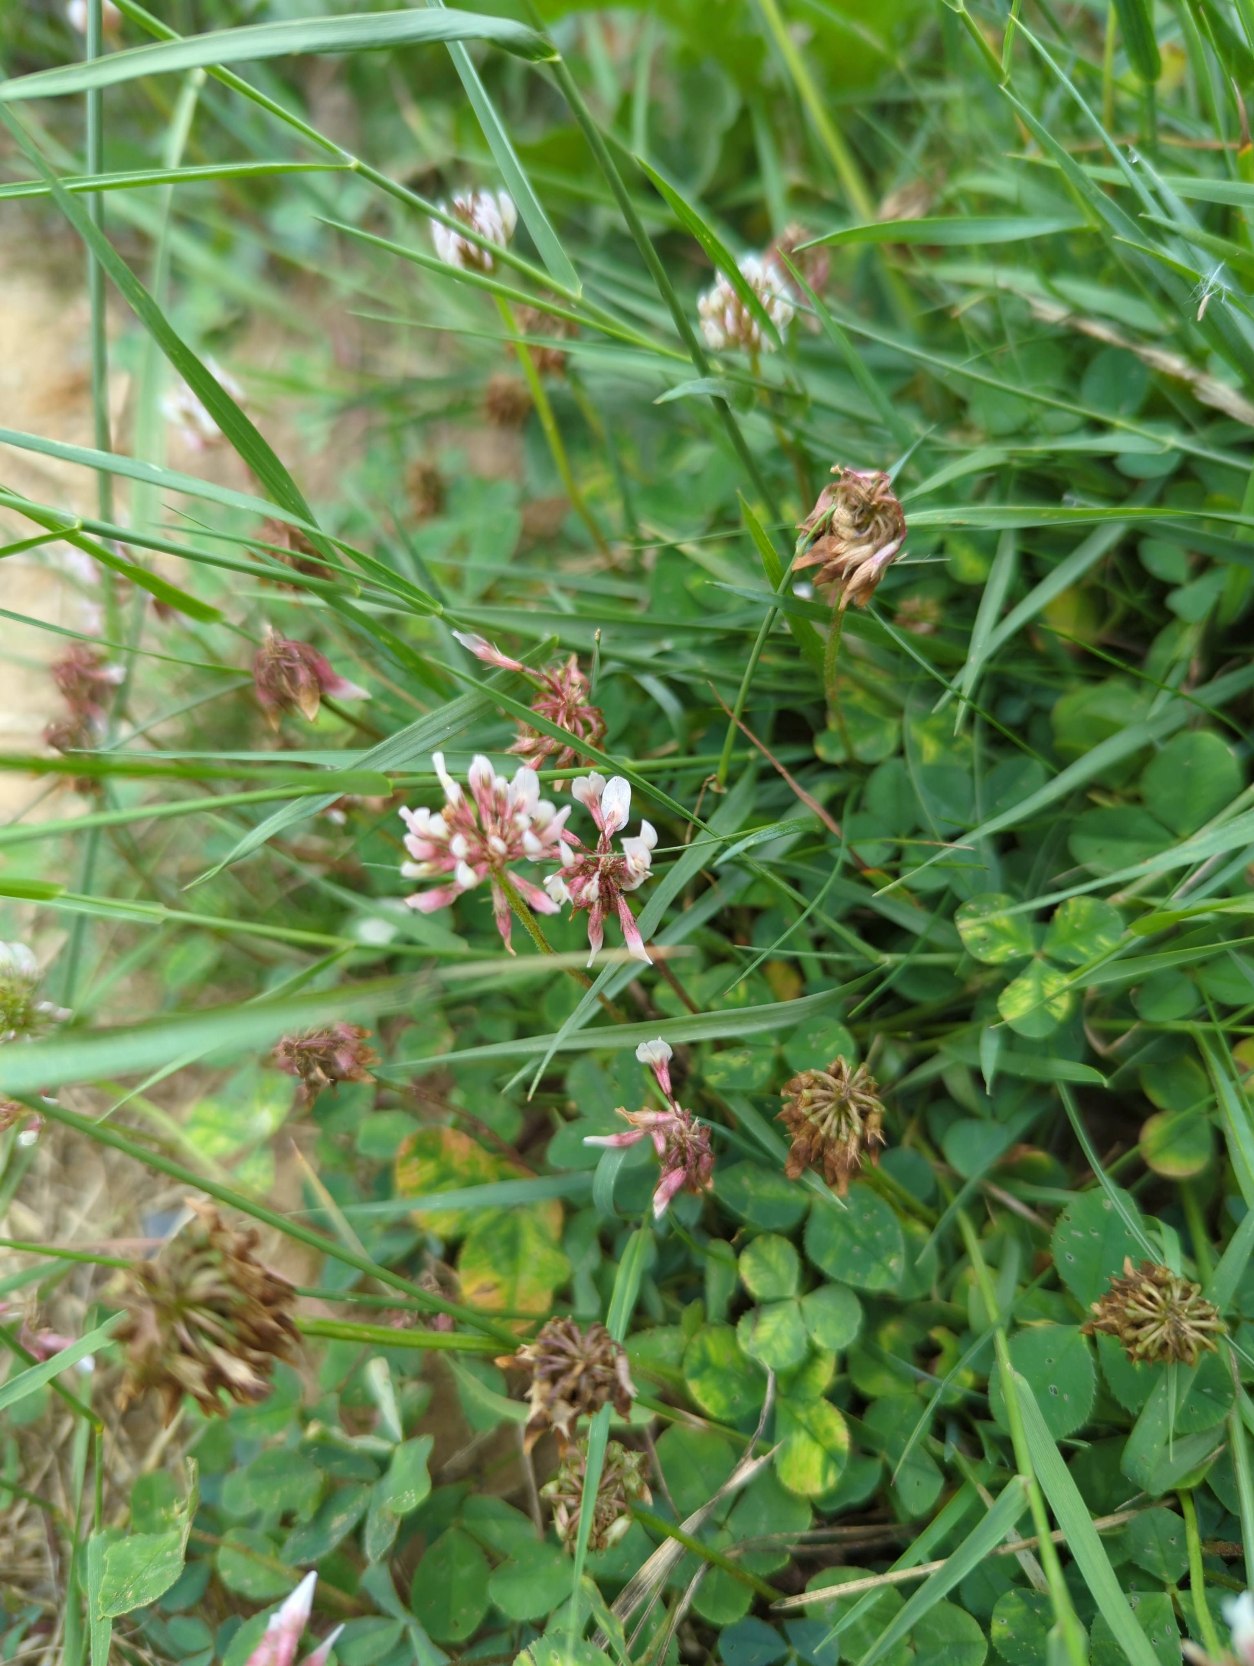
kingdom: Plantae
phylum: Tracheophyta
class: Magnoliopsida
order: Fabales
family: Fabaceae
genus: Trifolium
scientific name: Trifolium repens
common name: Hvid-kløver
